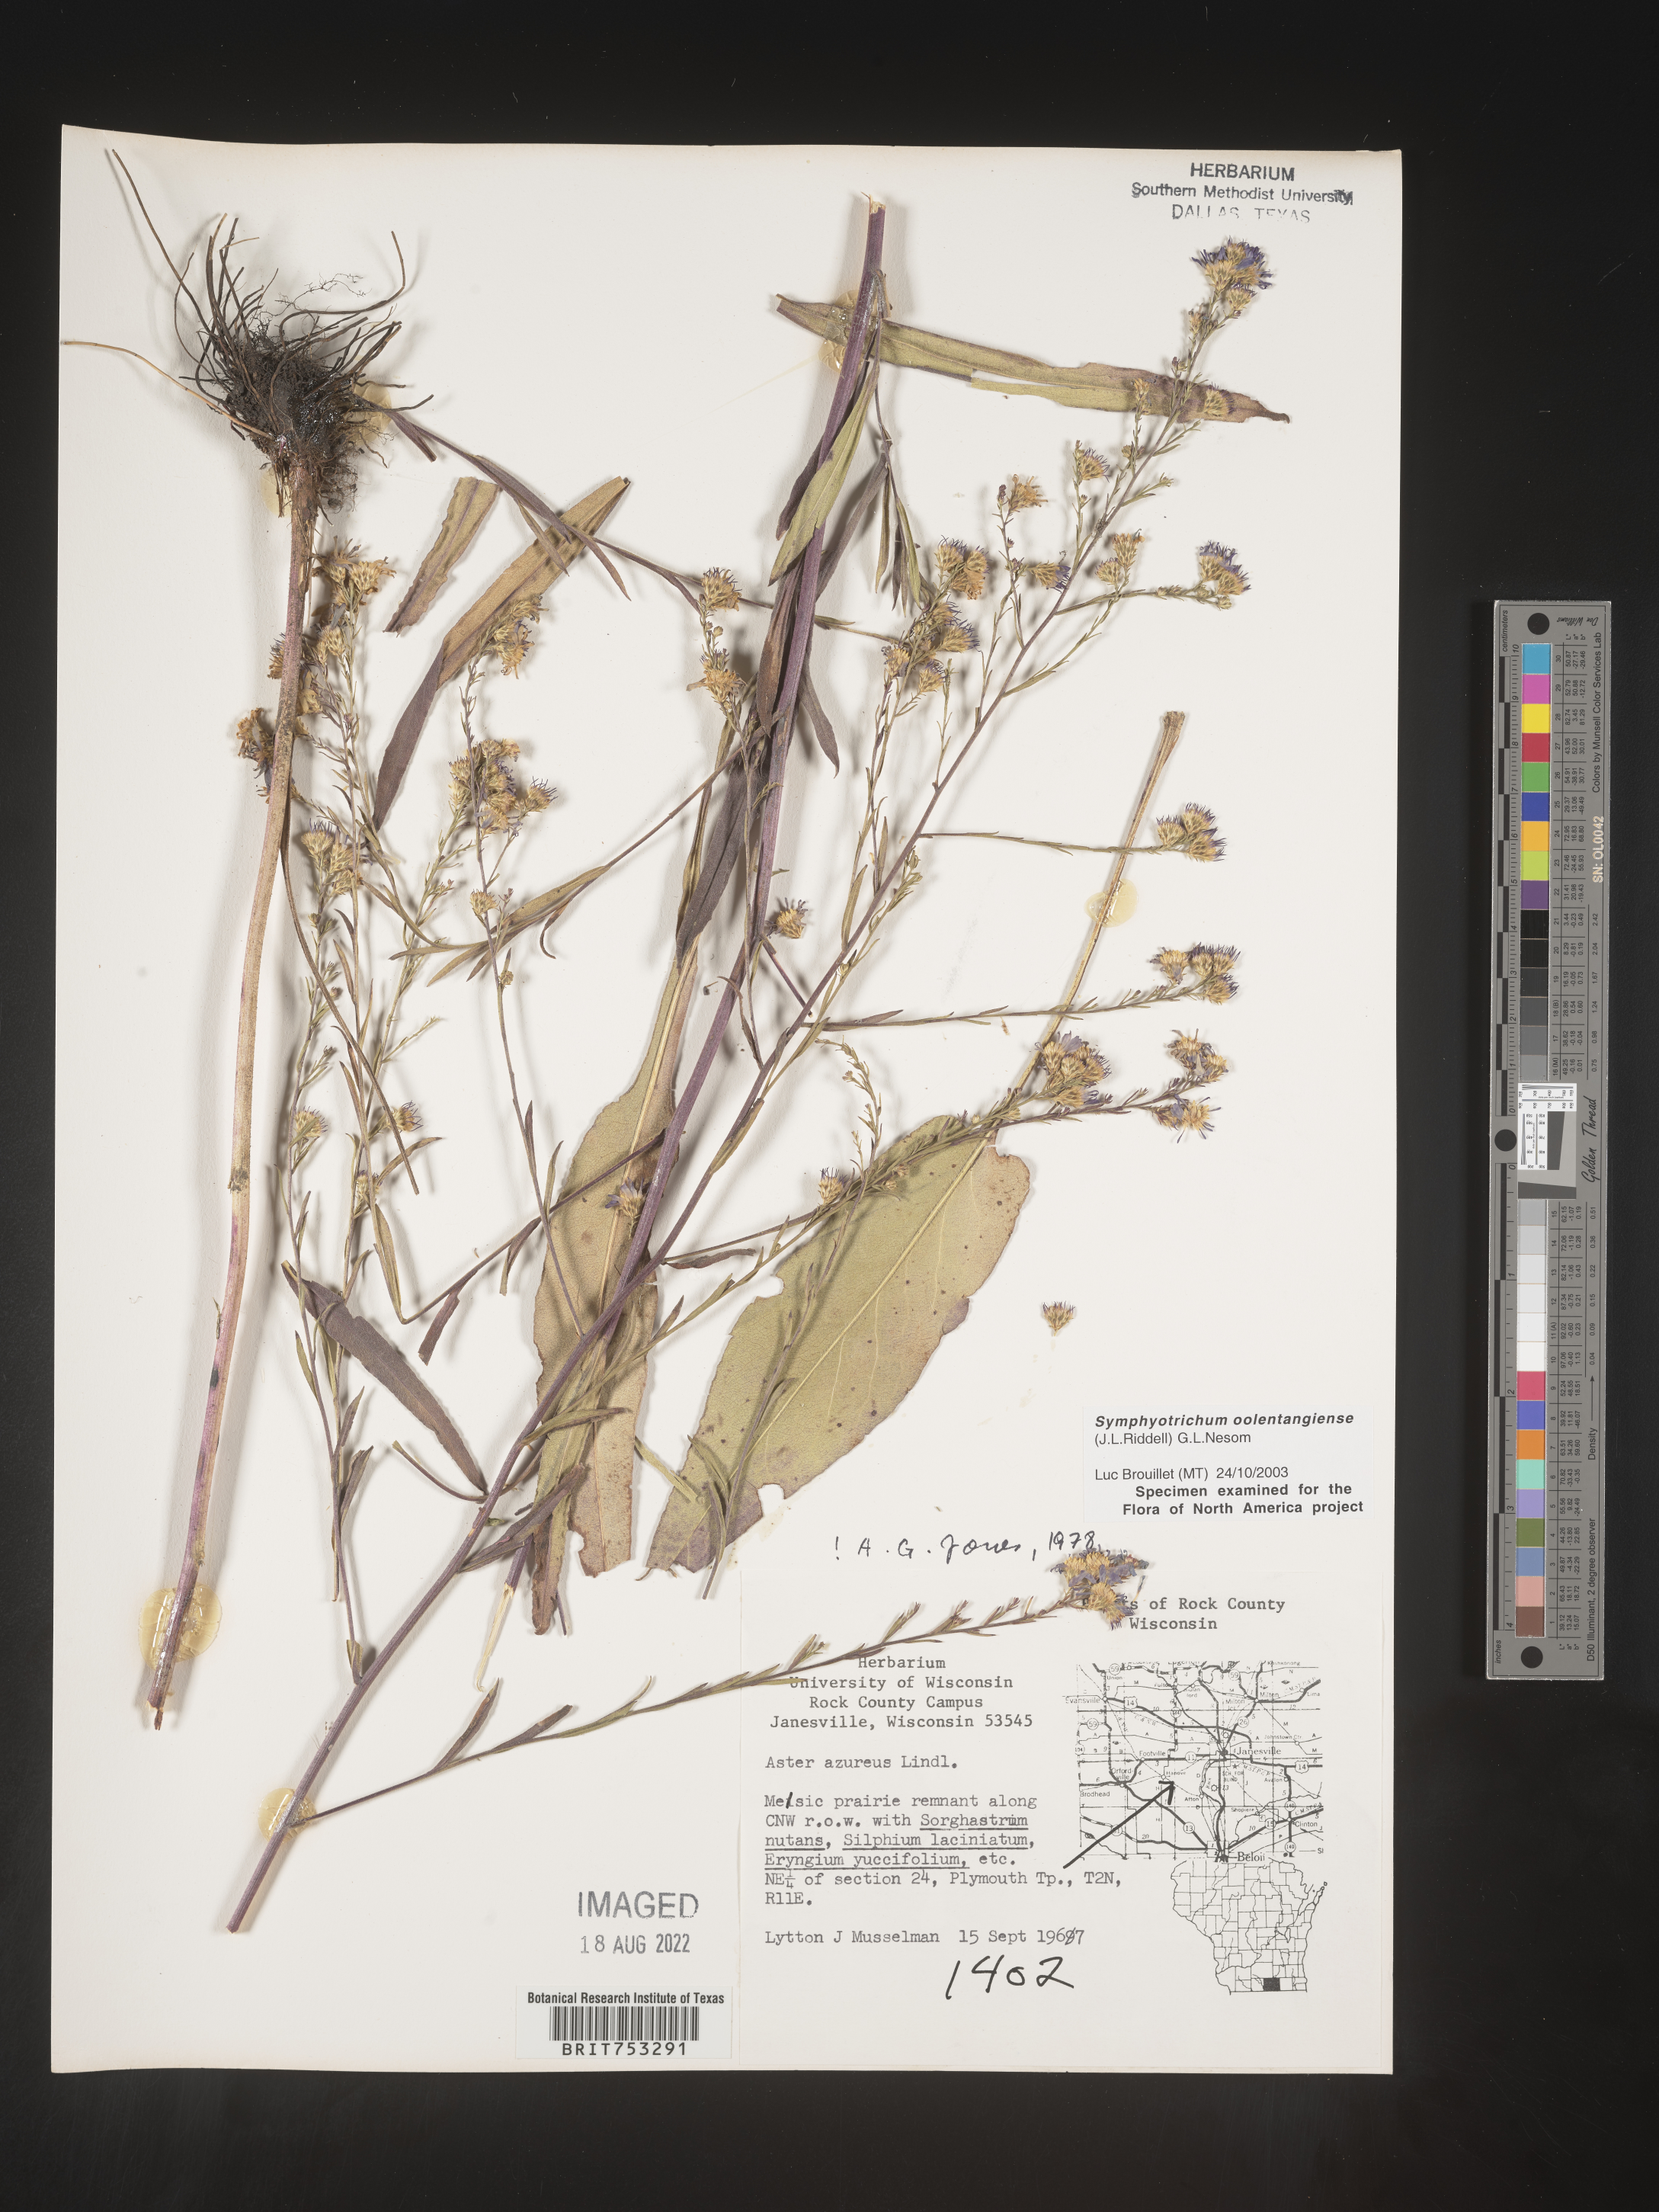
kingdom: Plantae
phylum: Tracheophyta
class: Magnoliopsida
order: Asterales
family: Asteraceae
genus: Symphyotrichum
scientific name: Symphyotrichum oolentangiense
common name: Azure aster
